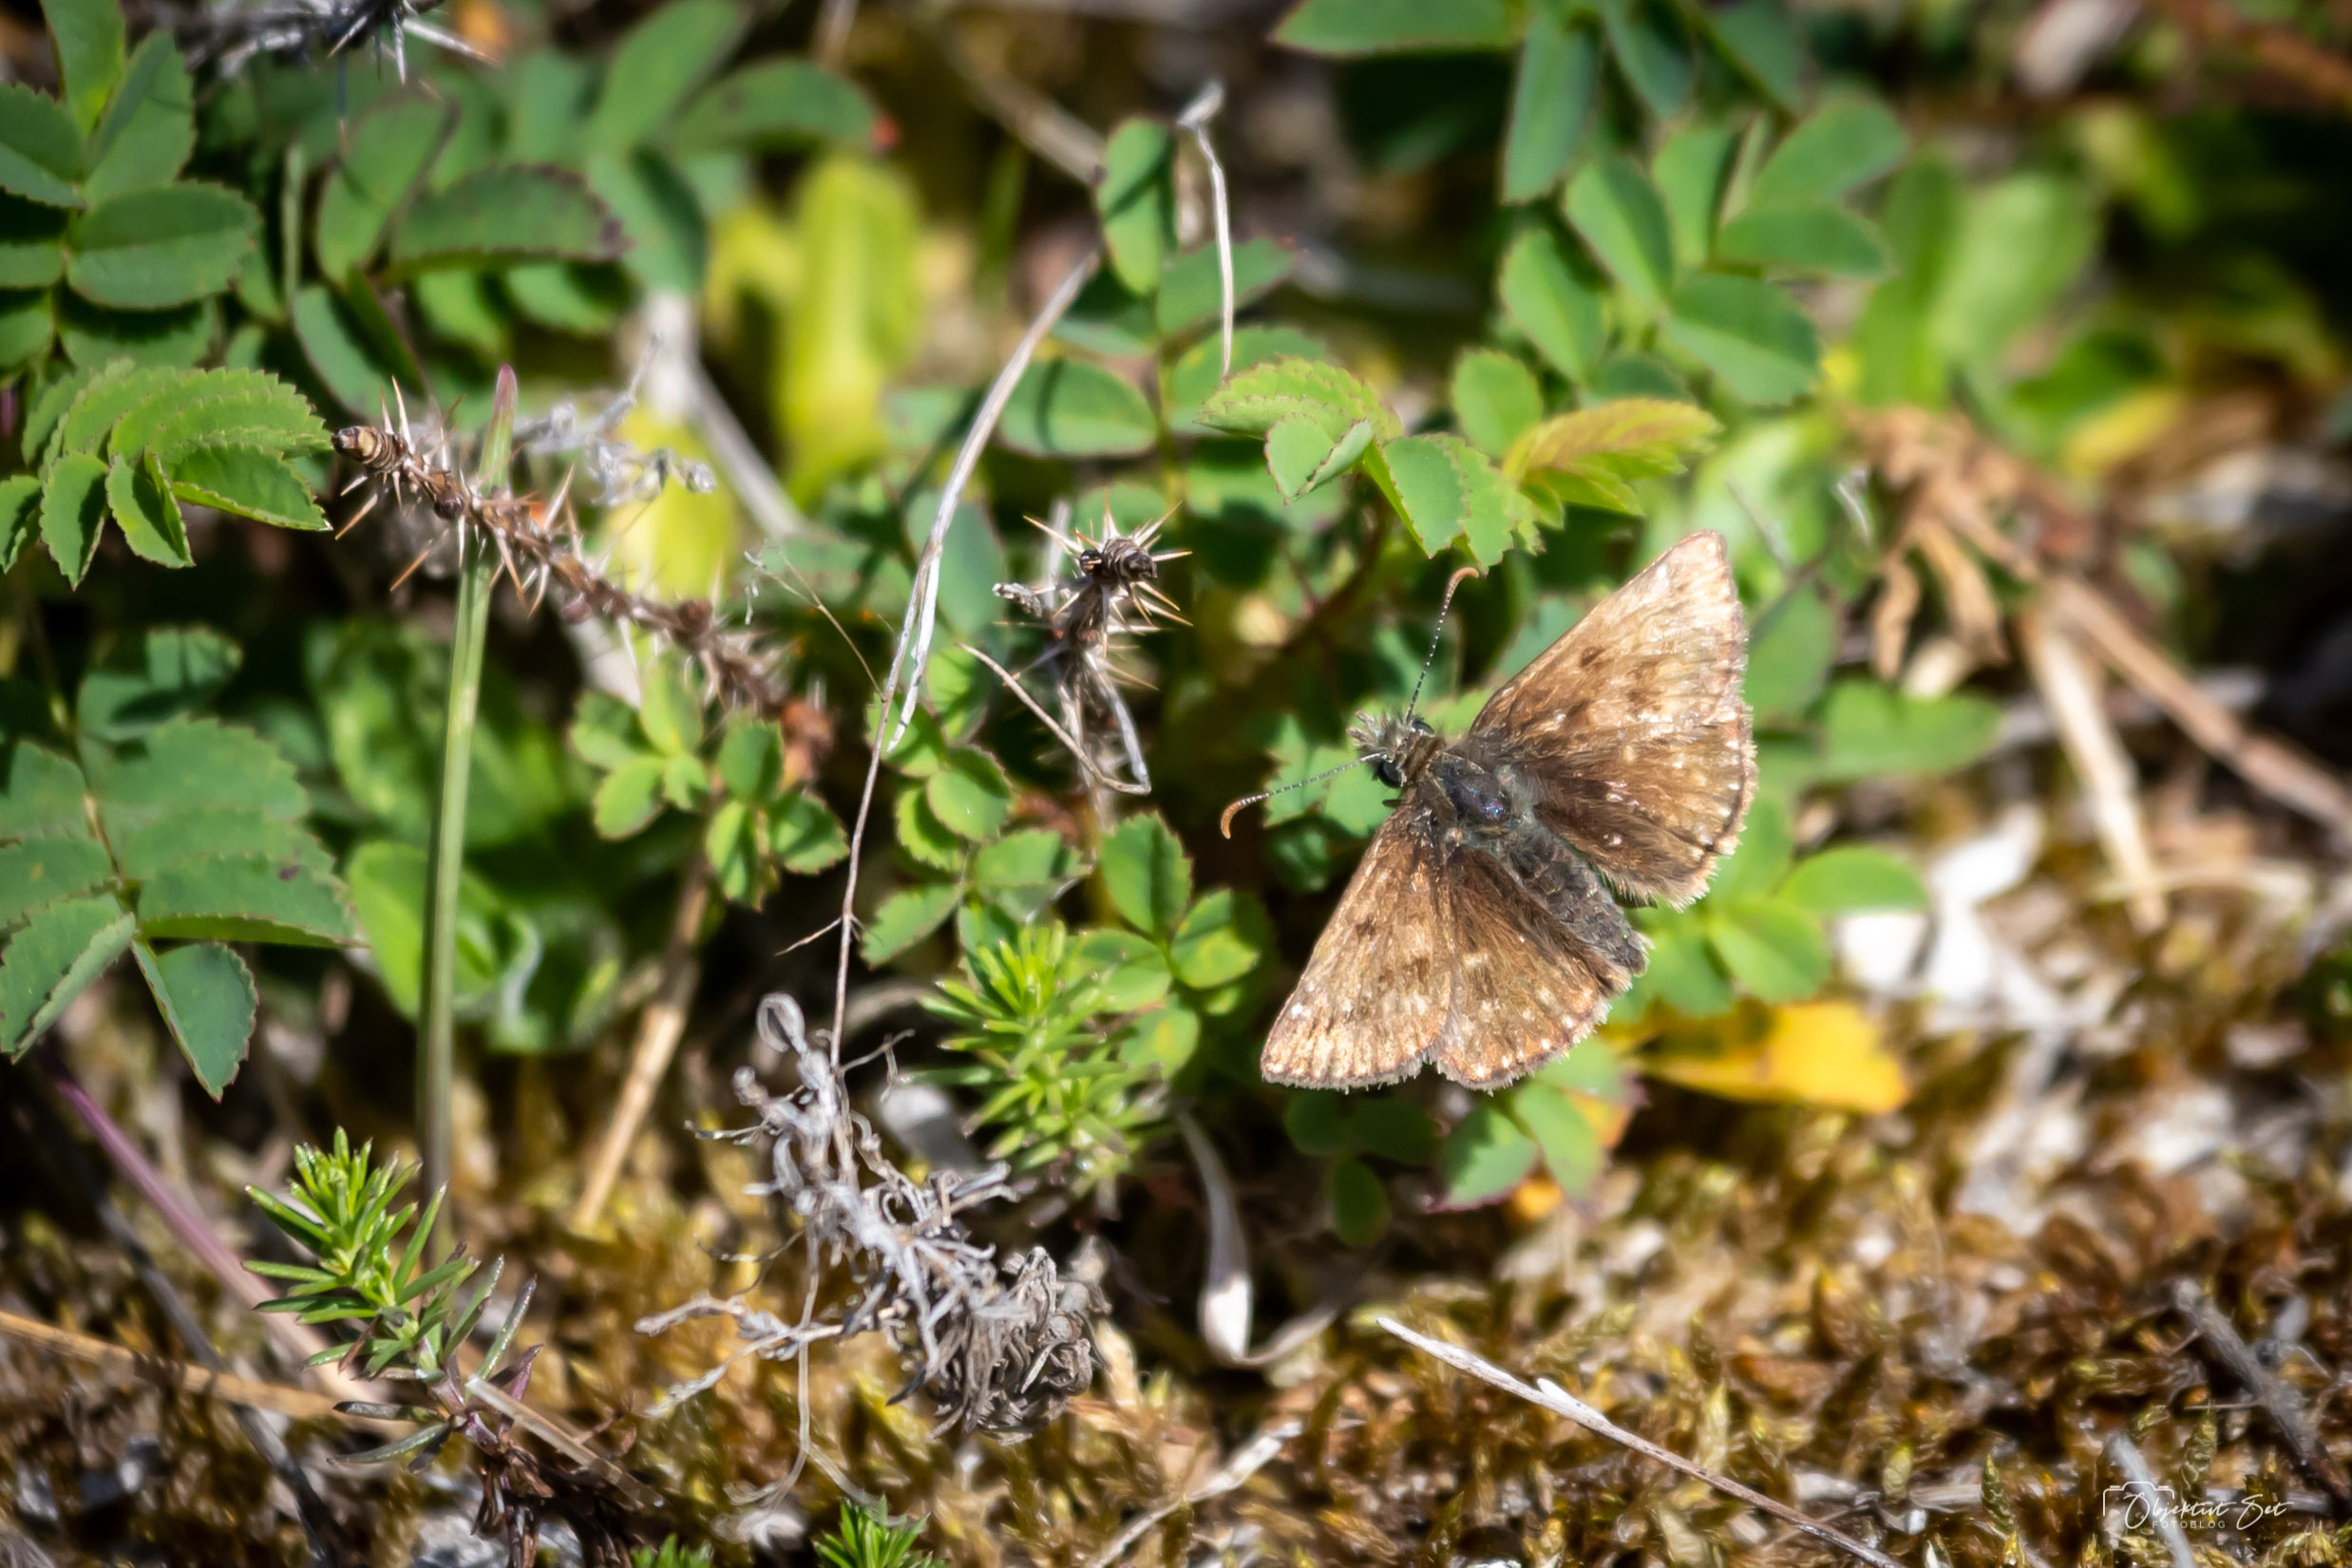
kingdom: Animalia
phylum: Arthropoda
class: Insecta
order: Lepidoptera
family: Hesperiidae
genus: Erynnis
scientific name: Erynnis tages
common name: Gråbåndet bredpande
